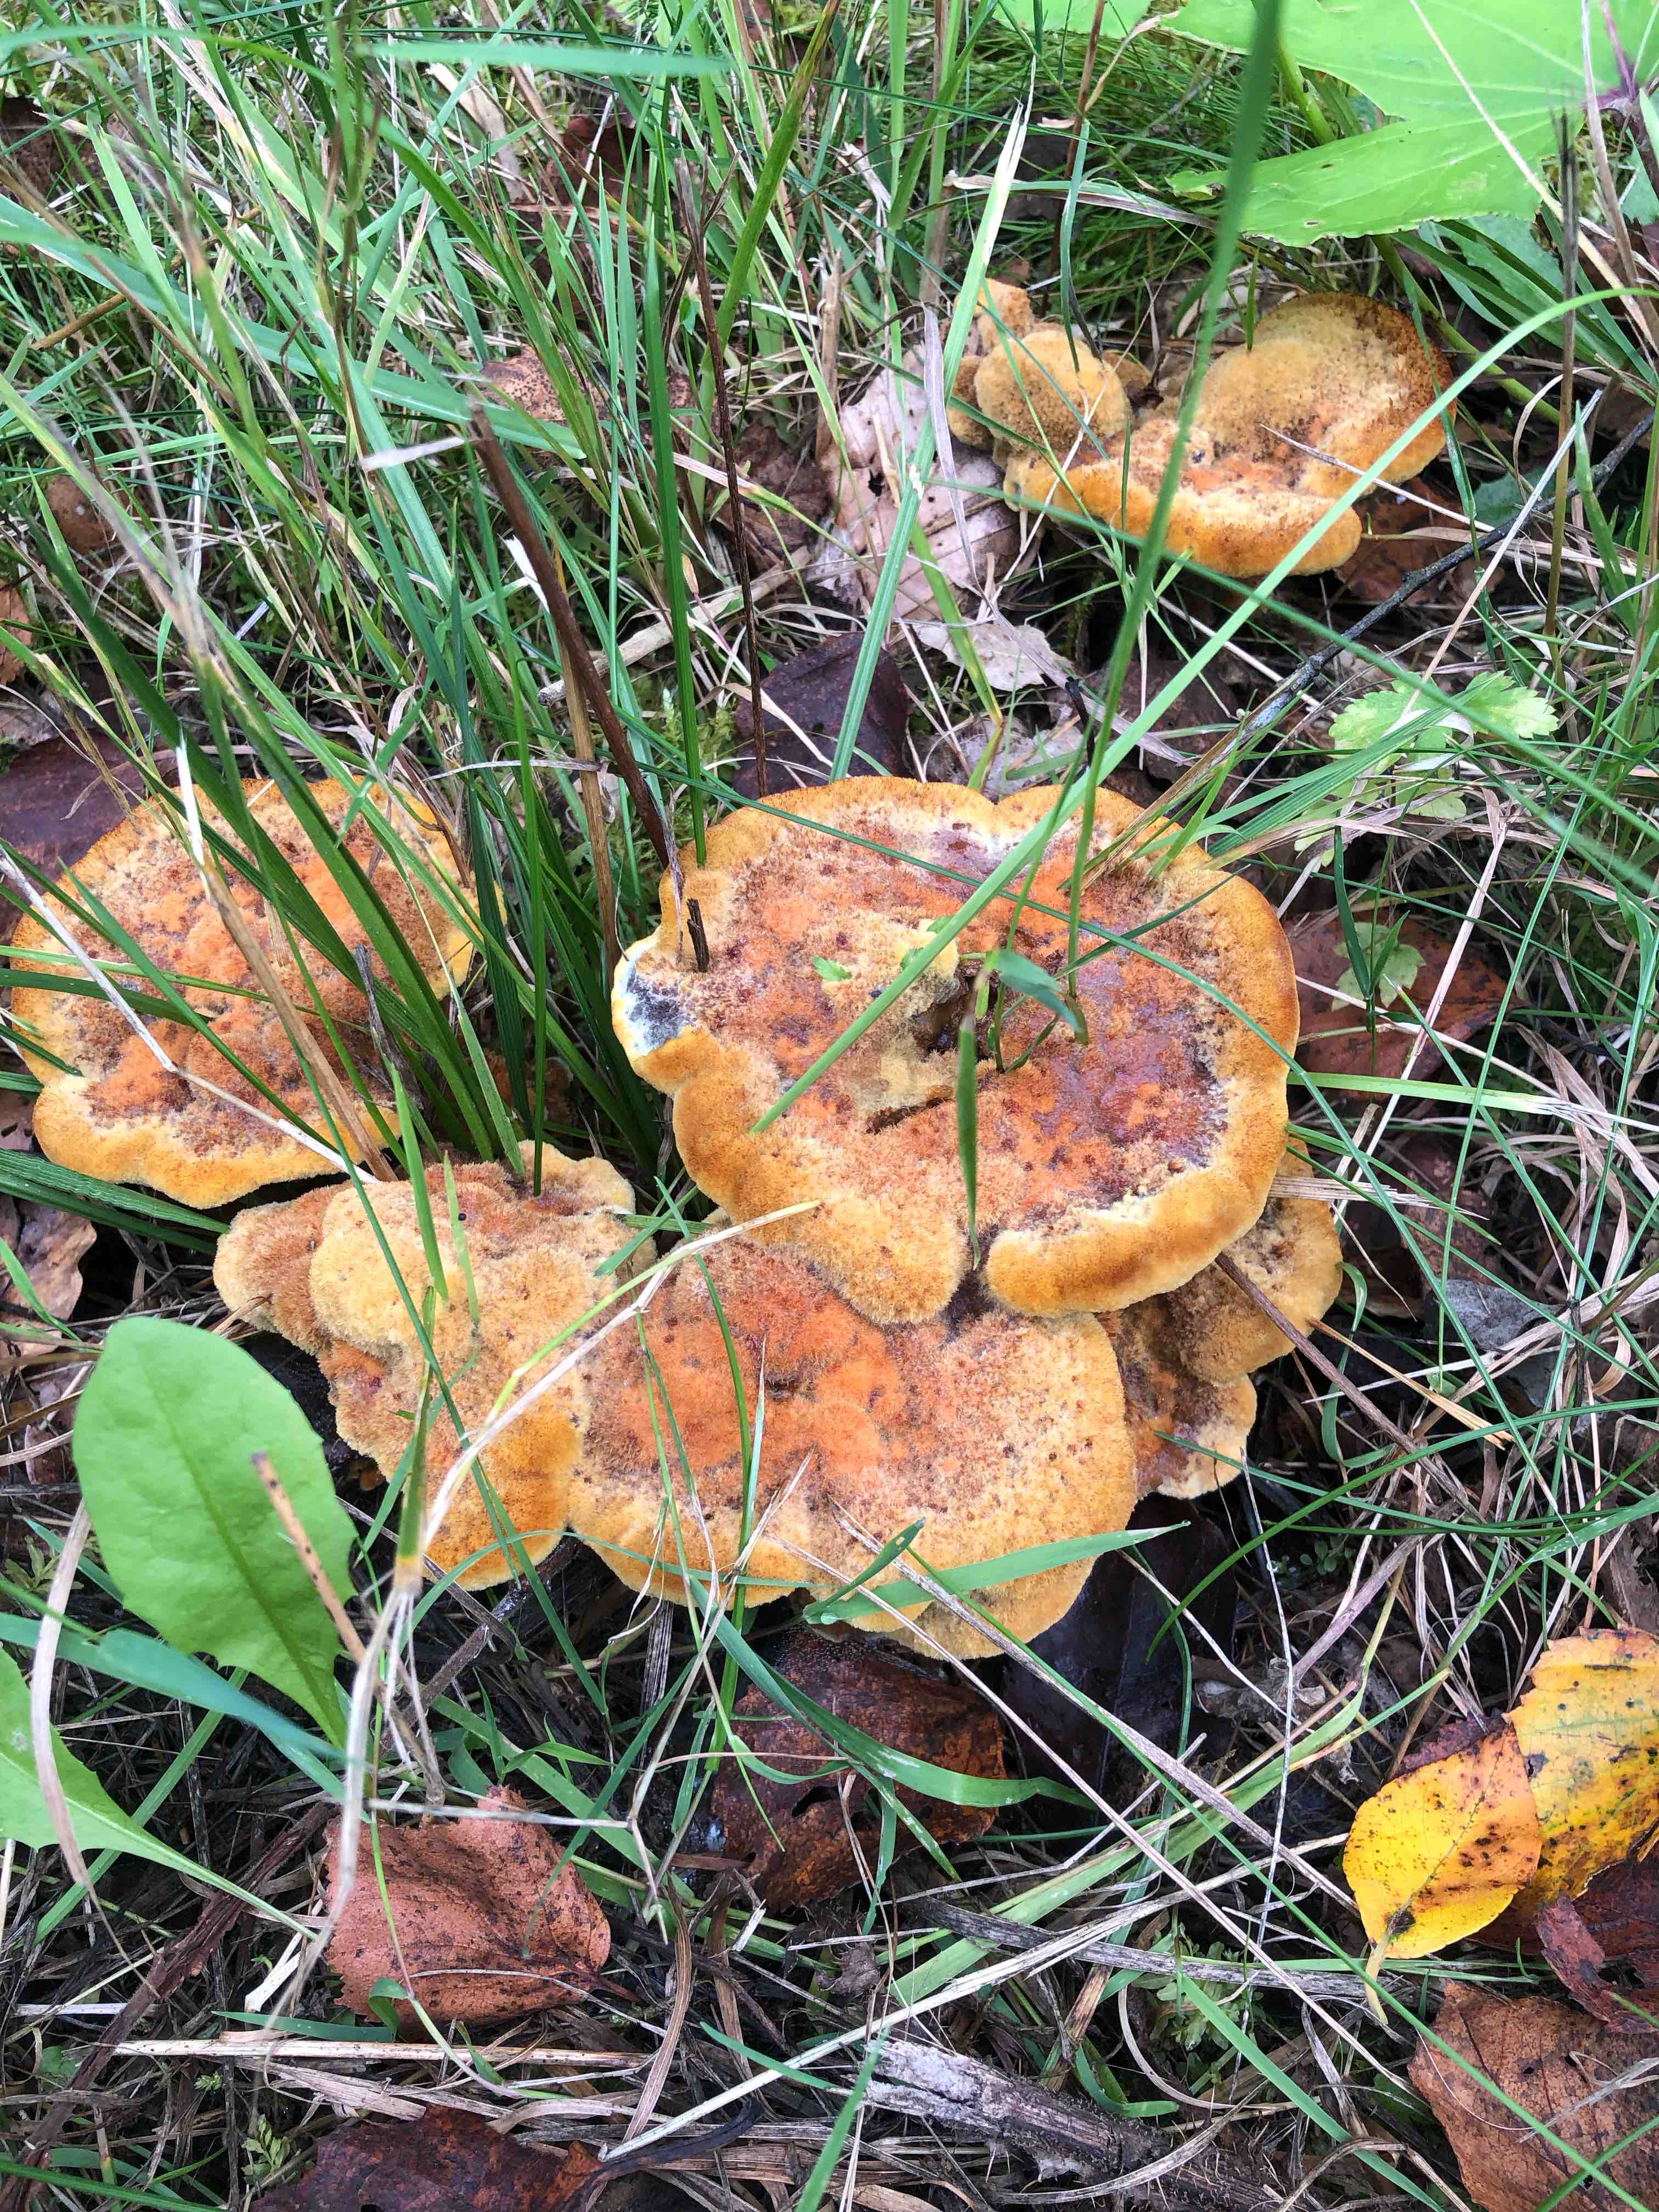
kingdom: Fungi
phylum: Basidiomycota
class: Agaricomycetes
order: Polyporales
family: Laetiporaceae
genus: Phaeolus
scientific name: Phaeolus schweinitzii
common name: brunporesvamp
